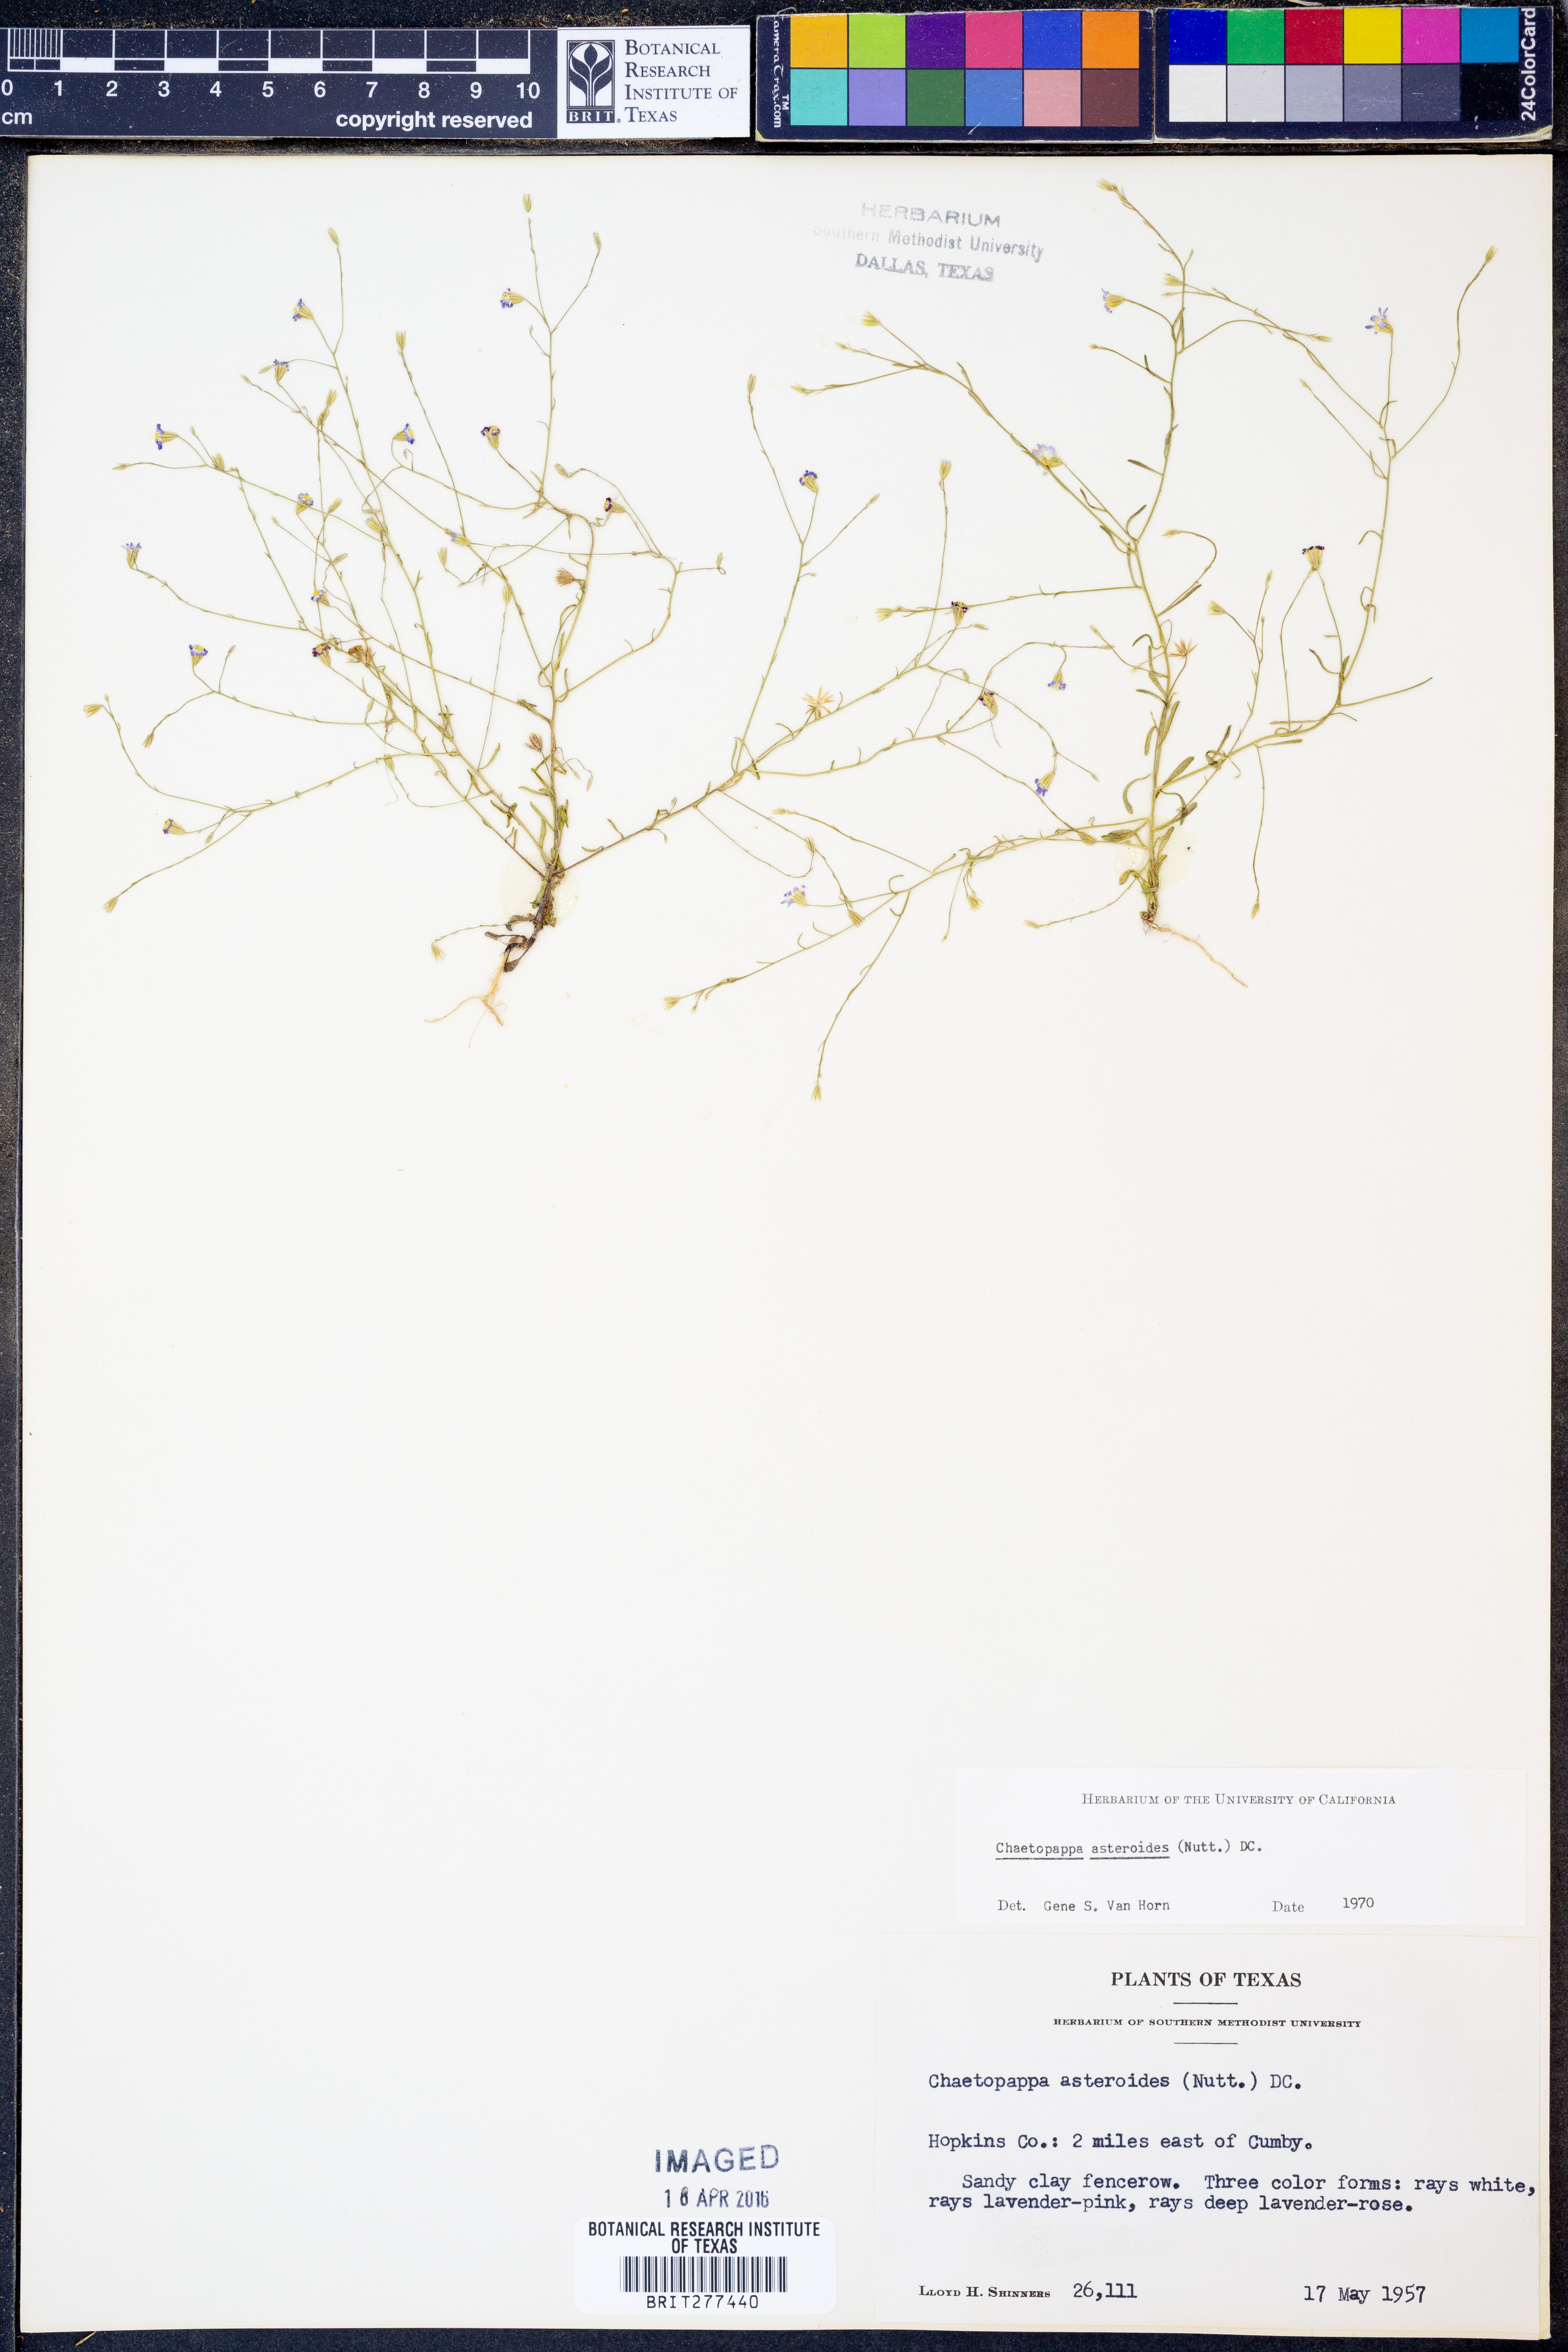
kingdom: Plantae
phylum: Tracheophyta
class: Magnoliopsida
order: Asterales
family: Asteraceae
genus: Chaetopappa
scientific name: Chaetopappa asteroides
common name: Tiny lazy daisy
